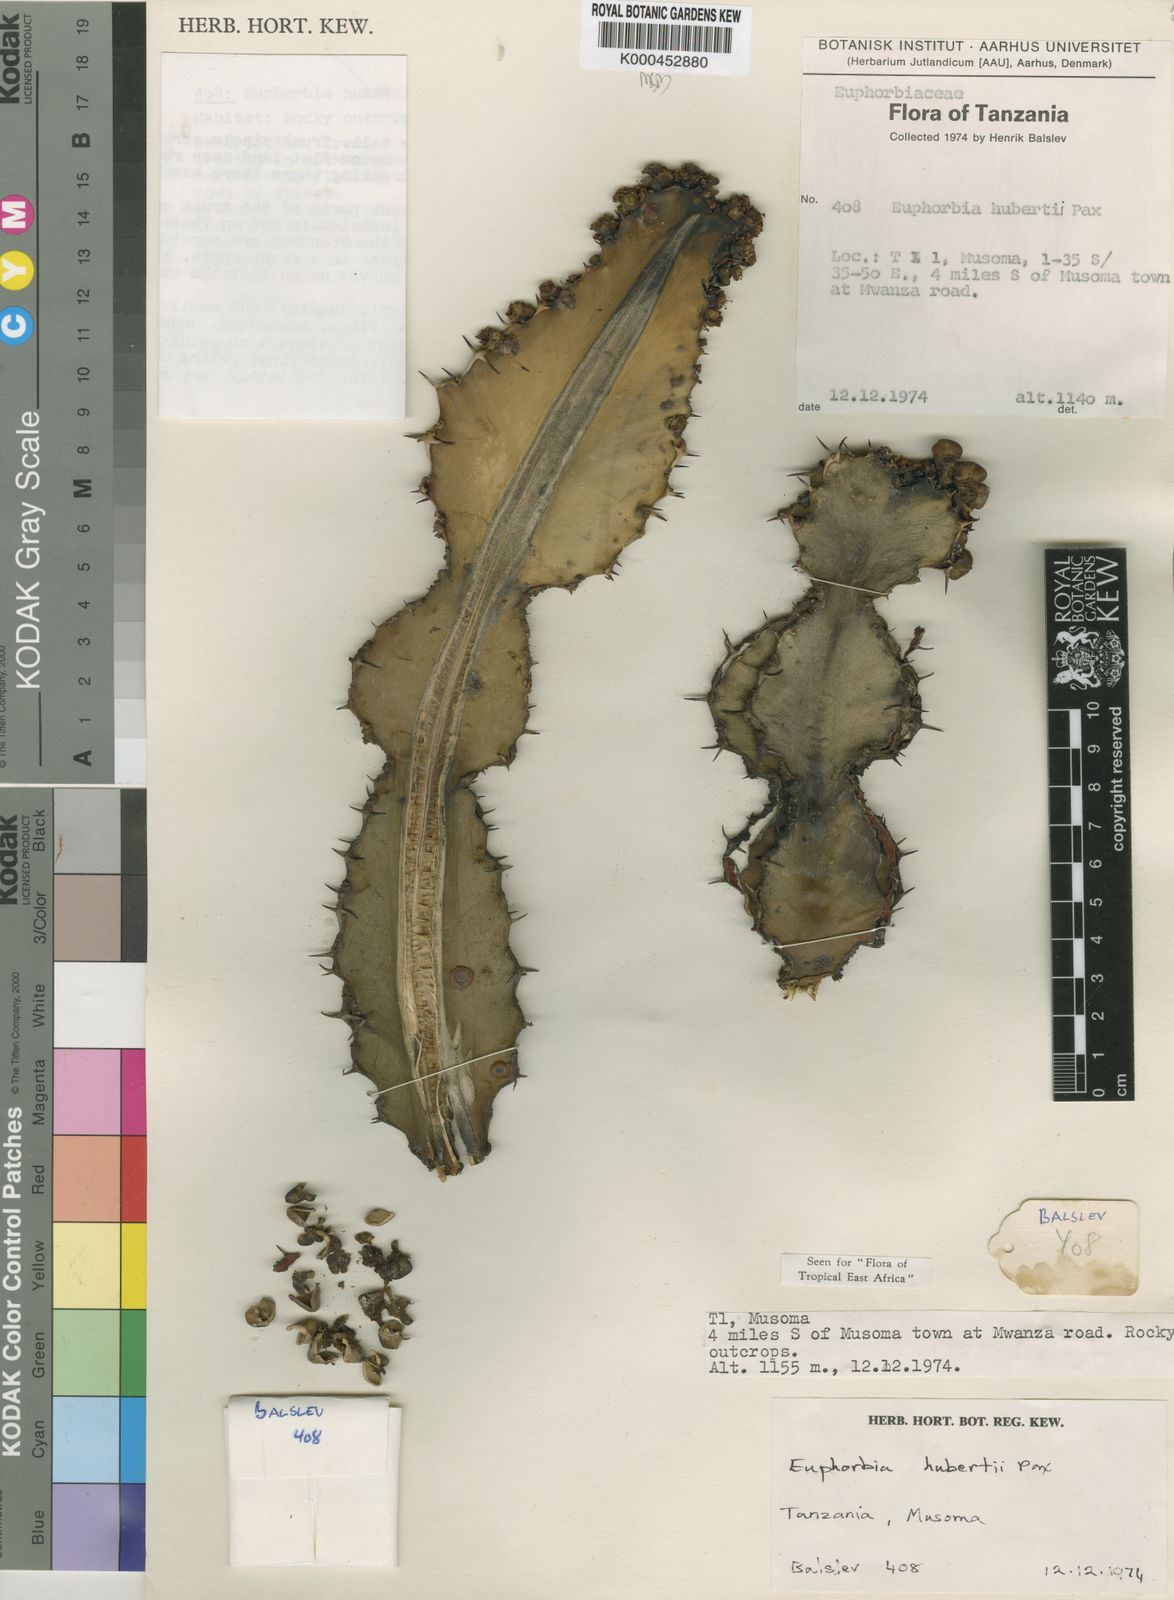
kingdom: Plantae
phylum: Tracheophyta
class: Magnoliopsida
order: Malpighiales
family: Euphorbiaceae
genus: Euphorbia
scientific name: Euphorbia hubertii
